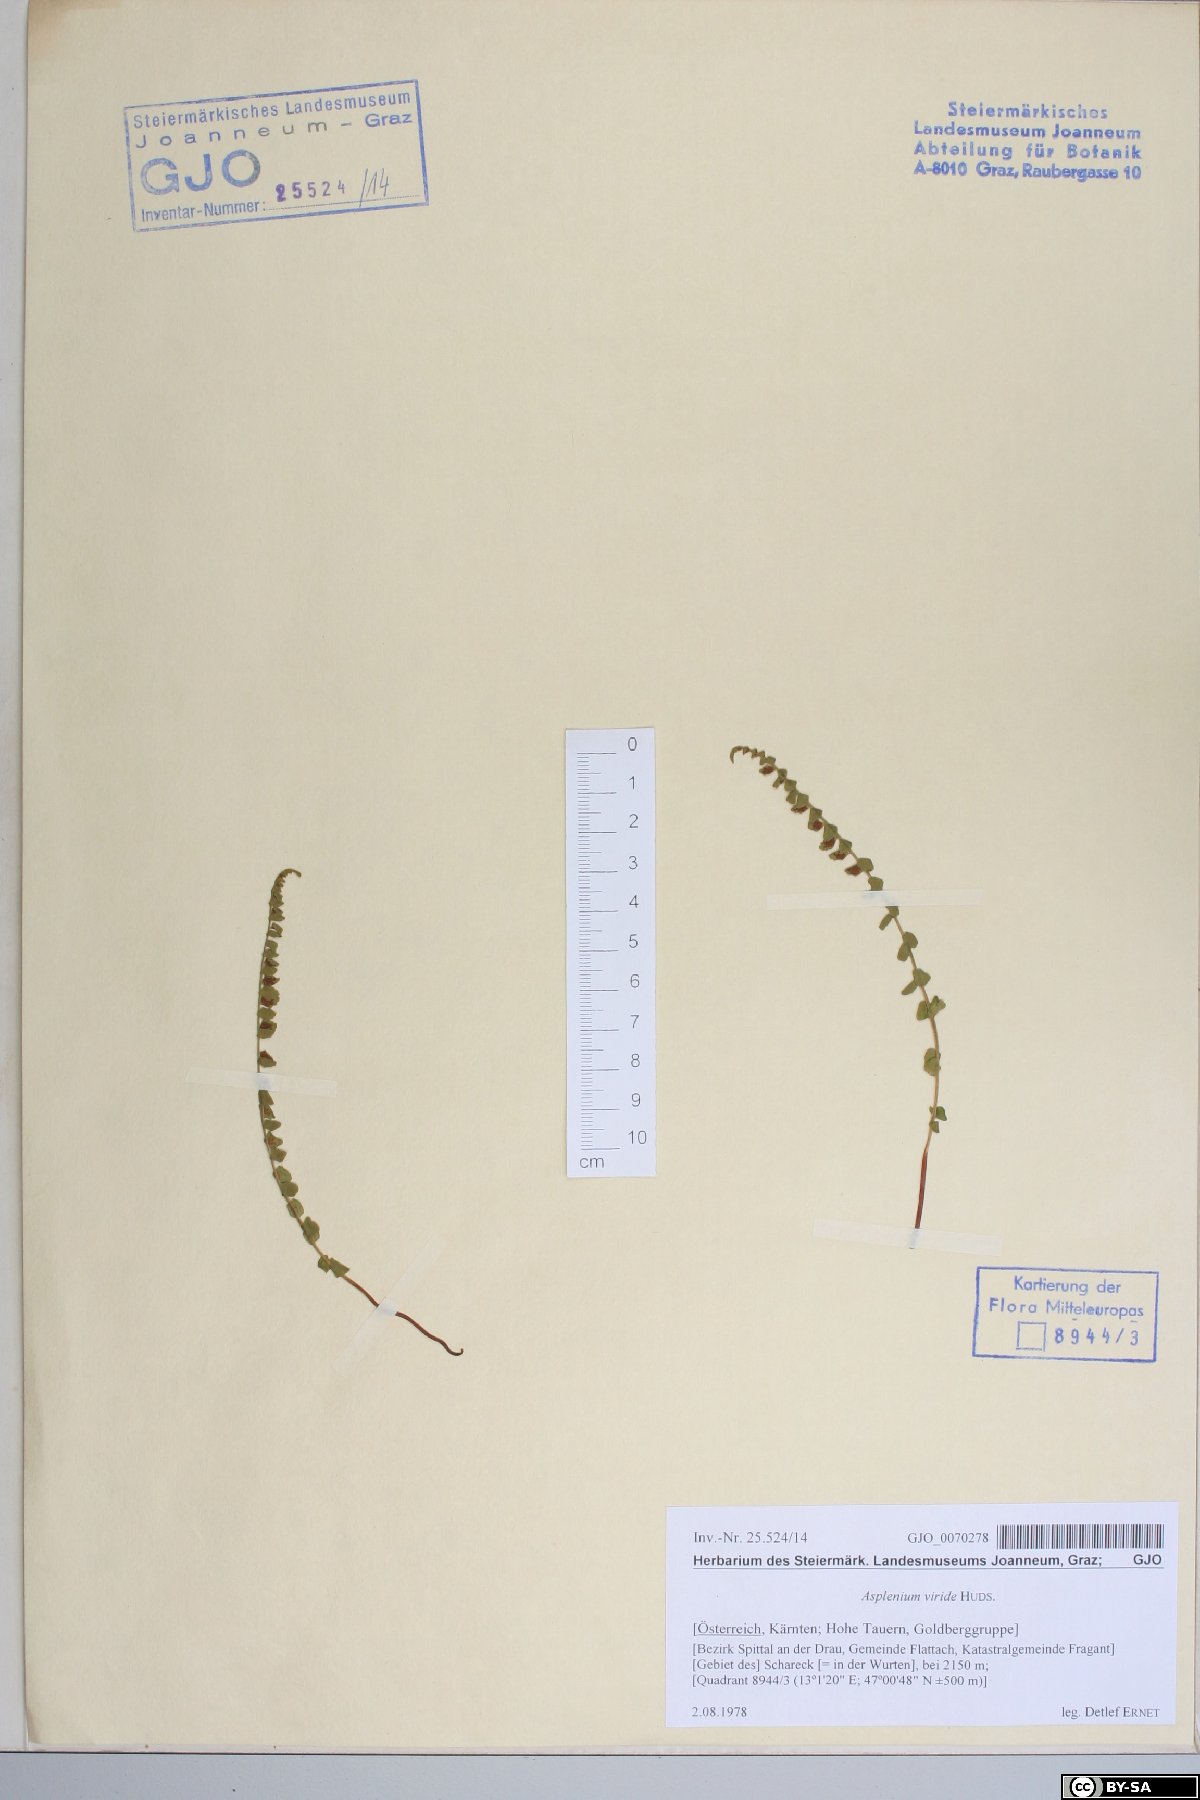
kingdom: Plantae
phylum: Tracheophyta
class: Polypodiopsida
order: Polypodiales
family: Aspleniaceae
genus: Asplenium
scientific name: Asplenium viride
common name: Green spleenwort
